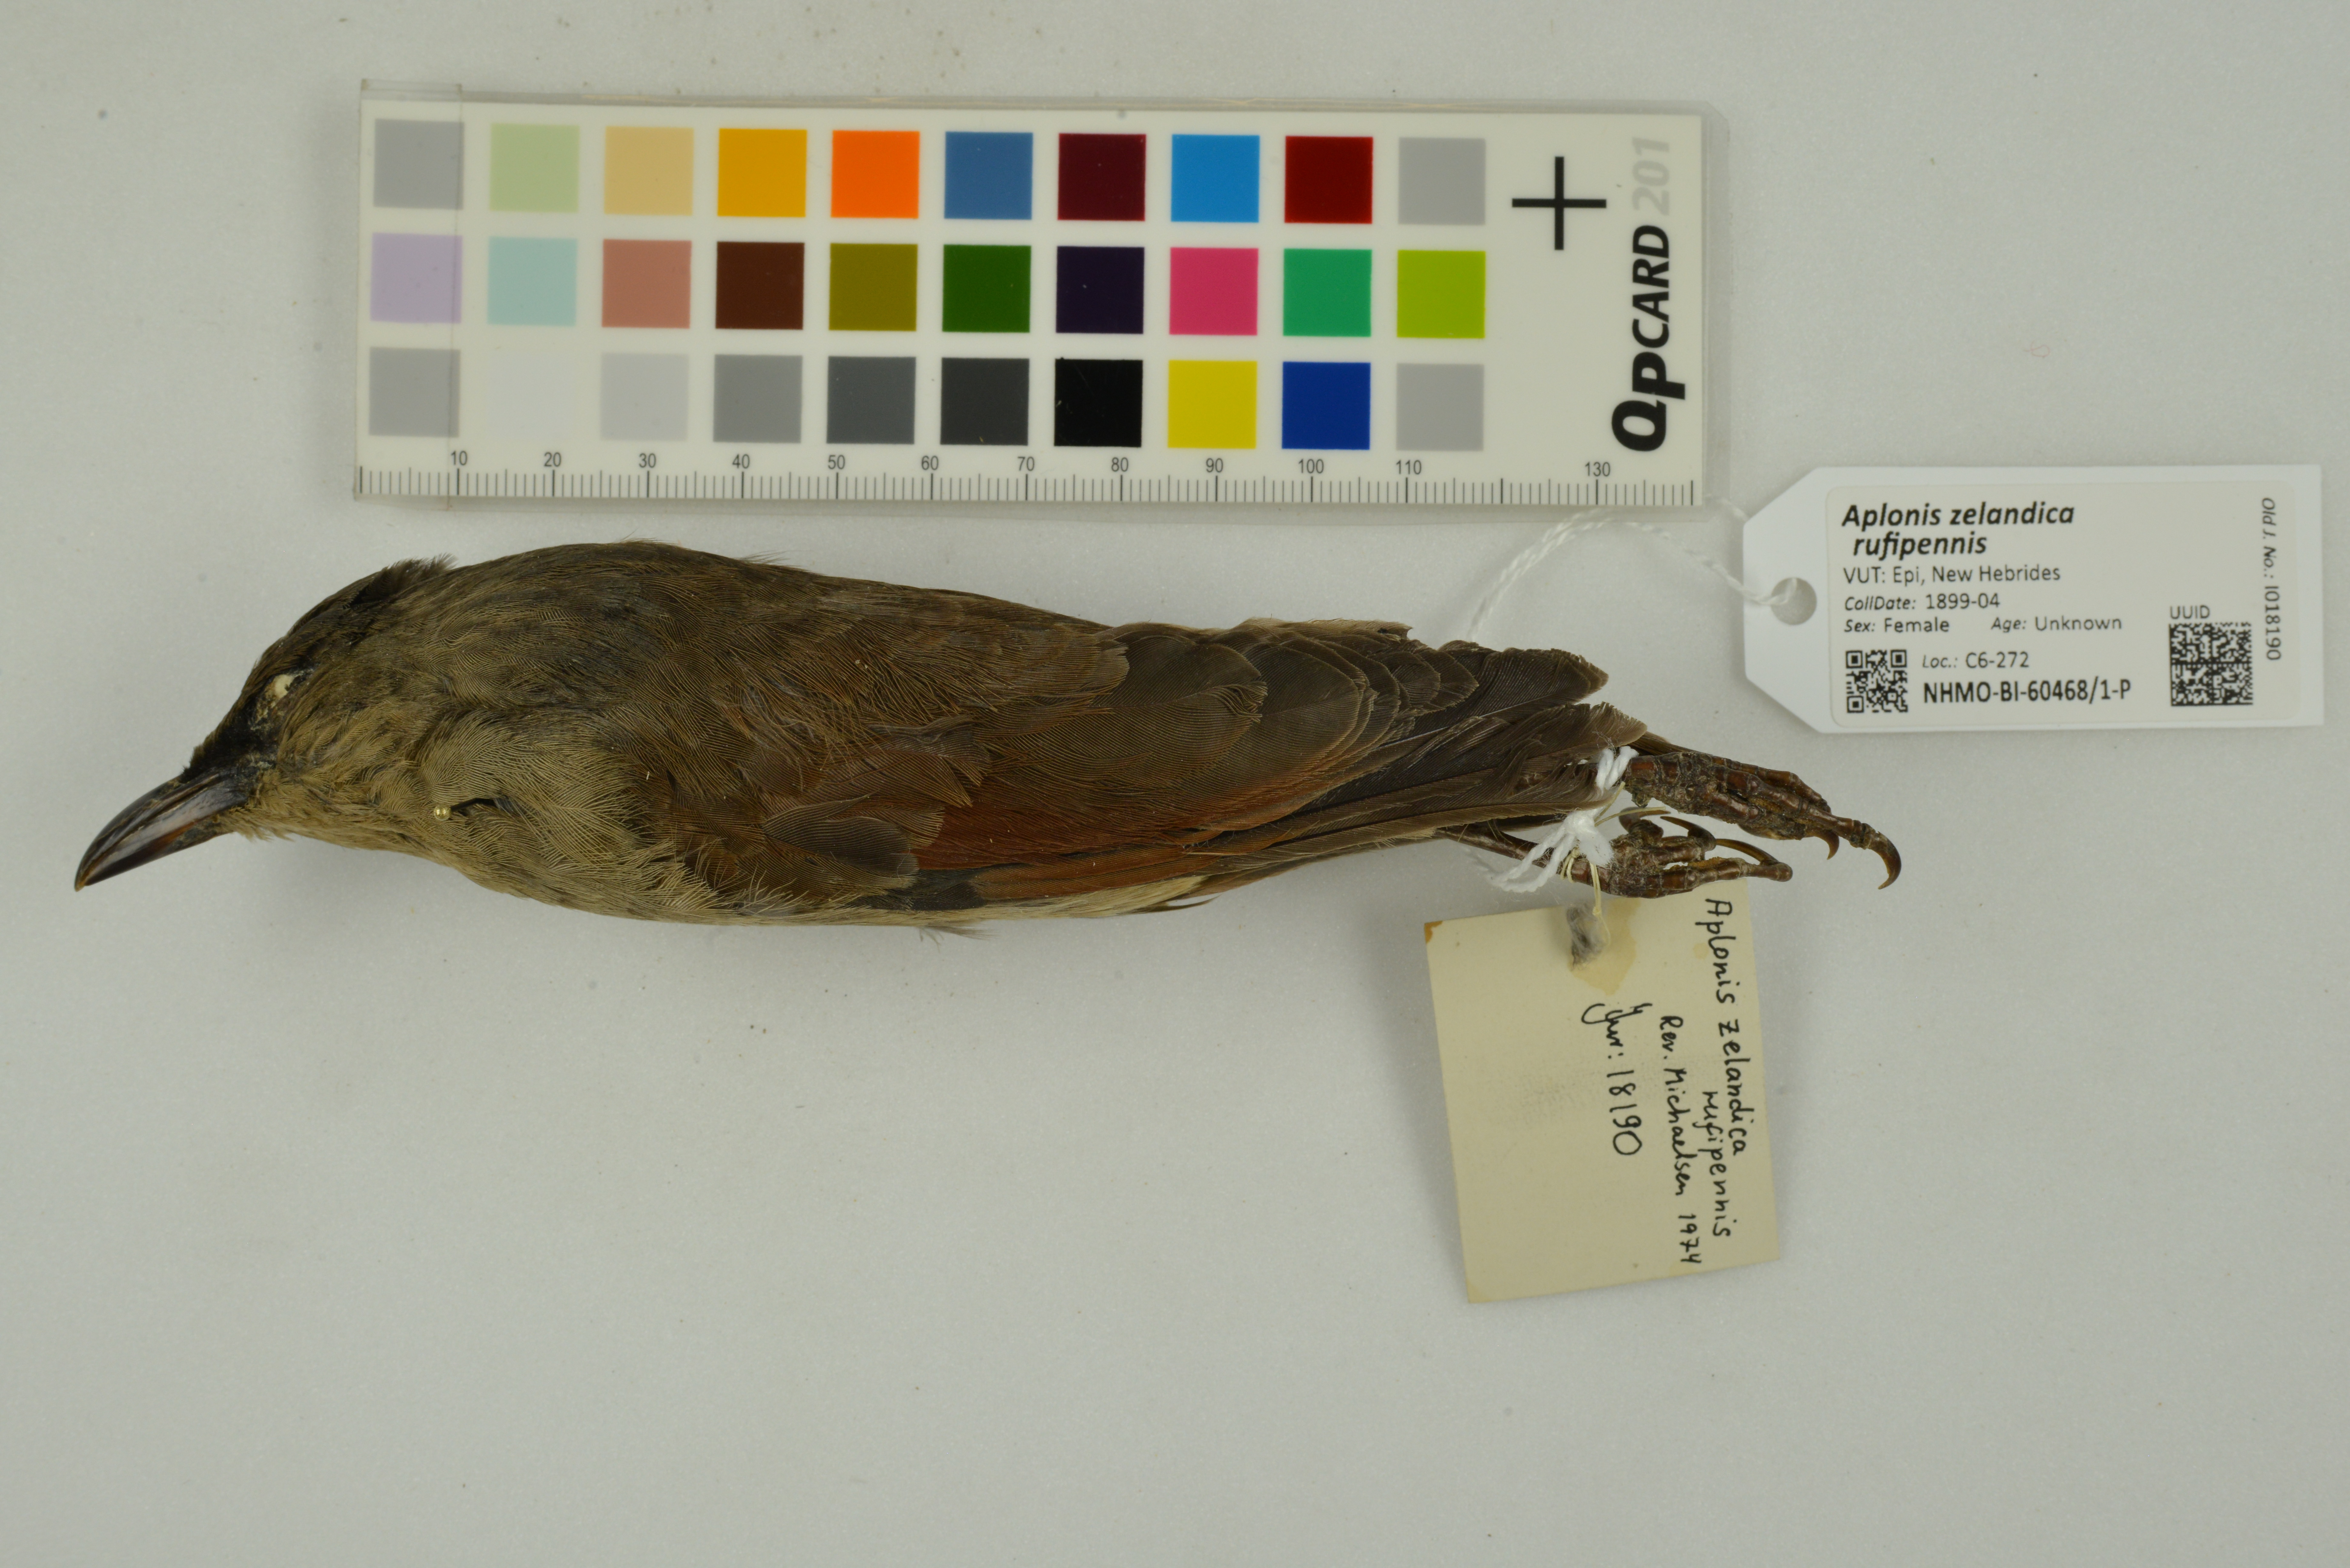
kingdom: Animalia
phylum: Chordata
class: Aves
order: Passeriformes
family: Sturnidae
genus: Aplonis
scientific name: Aplonis zelandica
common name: Rusty-winged starling
